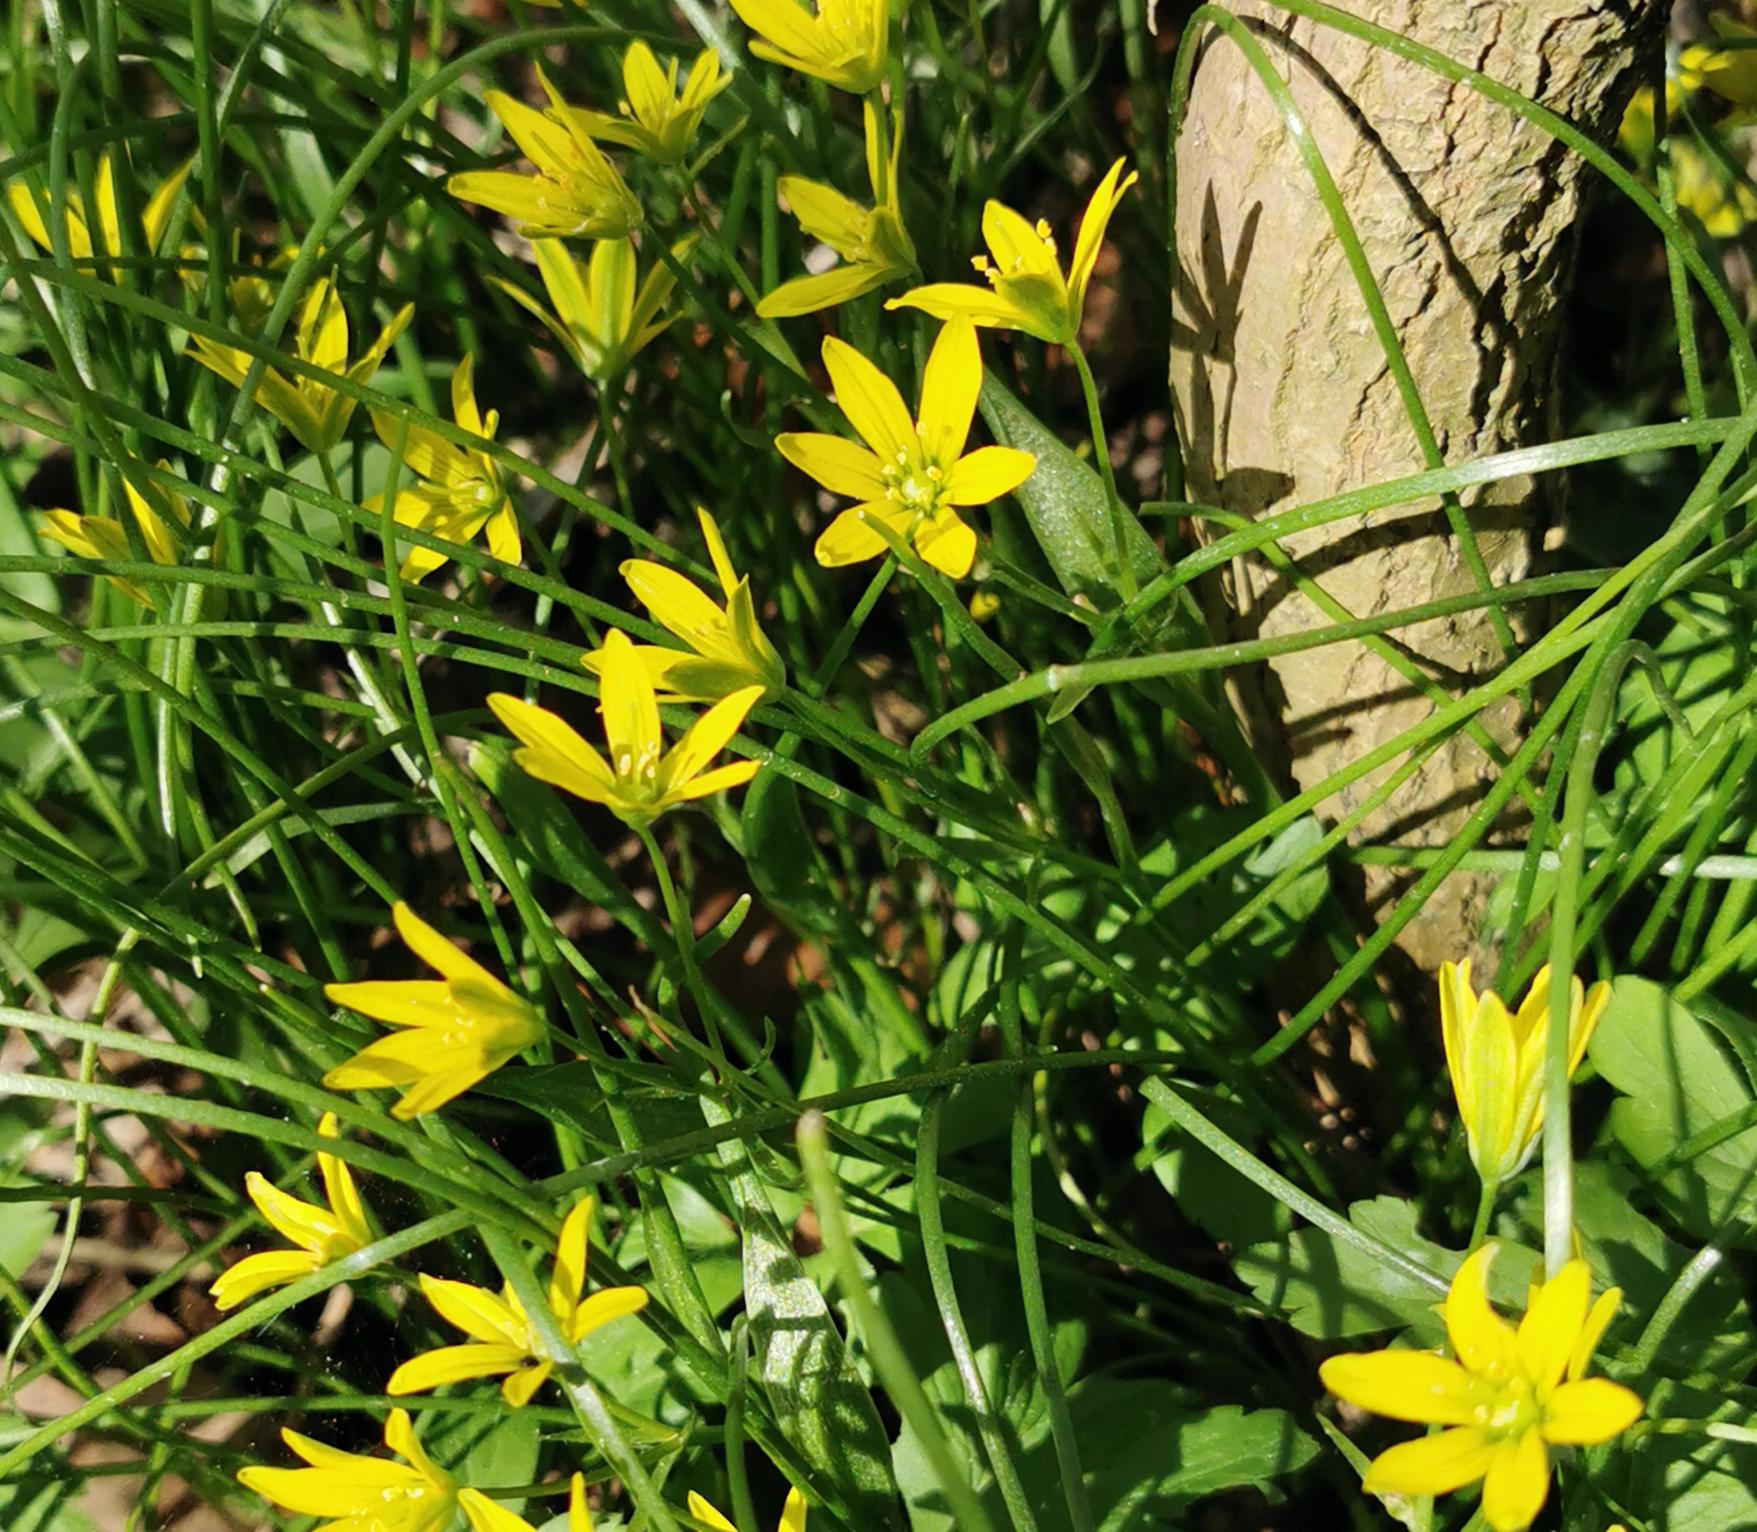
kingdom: Plantae
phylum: Tracheophyta
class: Liliopsida
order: Liliales
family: Liliaceae
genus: Gagea
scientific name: Gagea spathacea
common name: Hylster-guldstjerne
